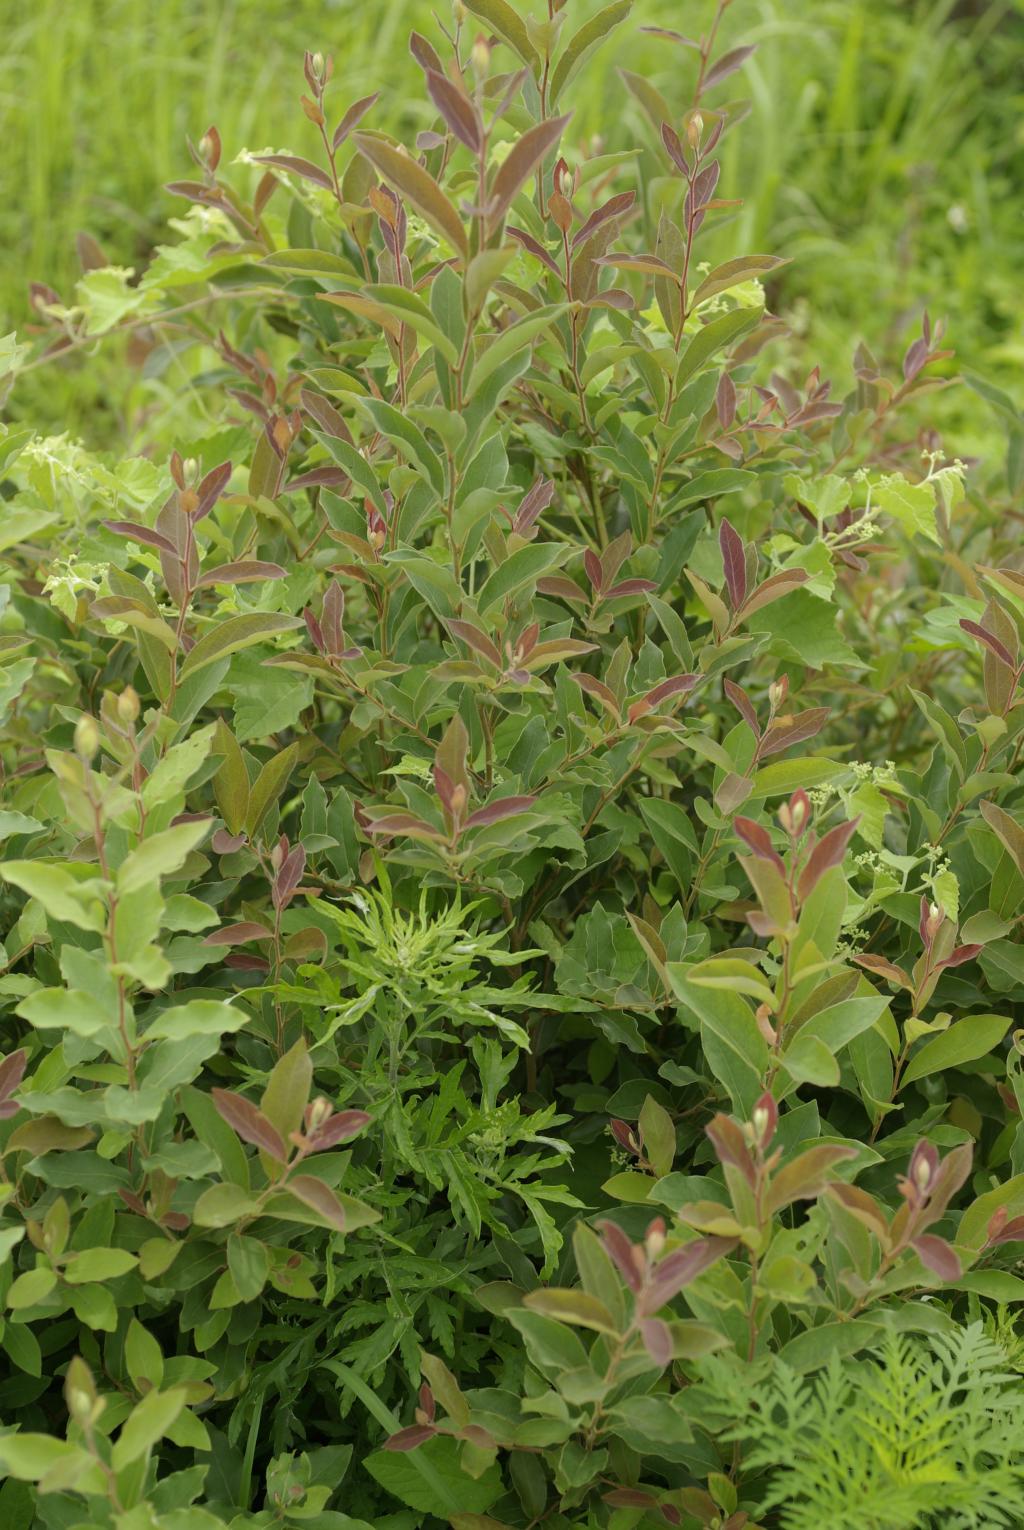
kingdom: Plantae
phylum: Tracheophyta
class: Magnoliopsida
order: Laurales
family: Lauraceae
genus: Lindera
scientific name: Lindera glauca
